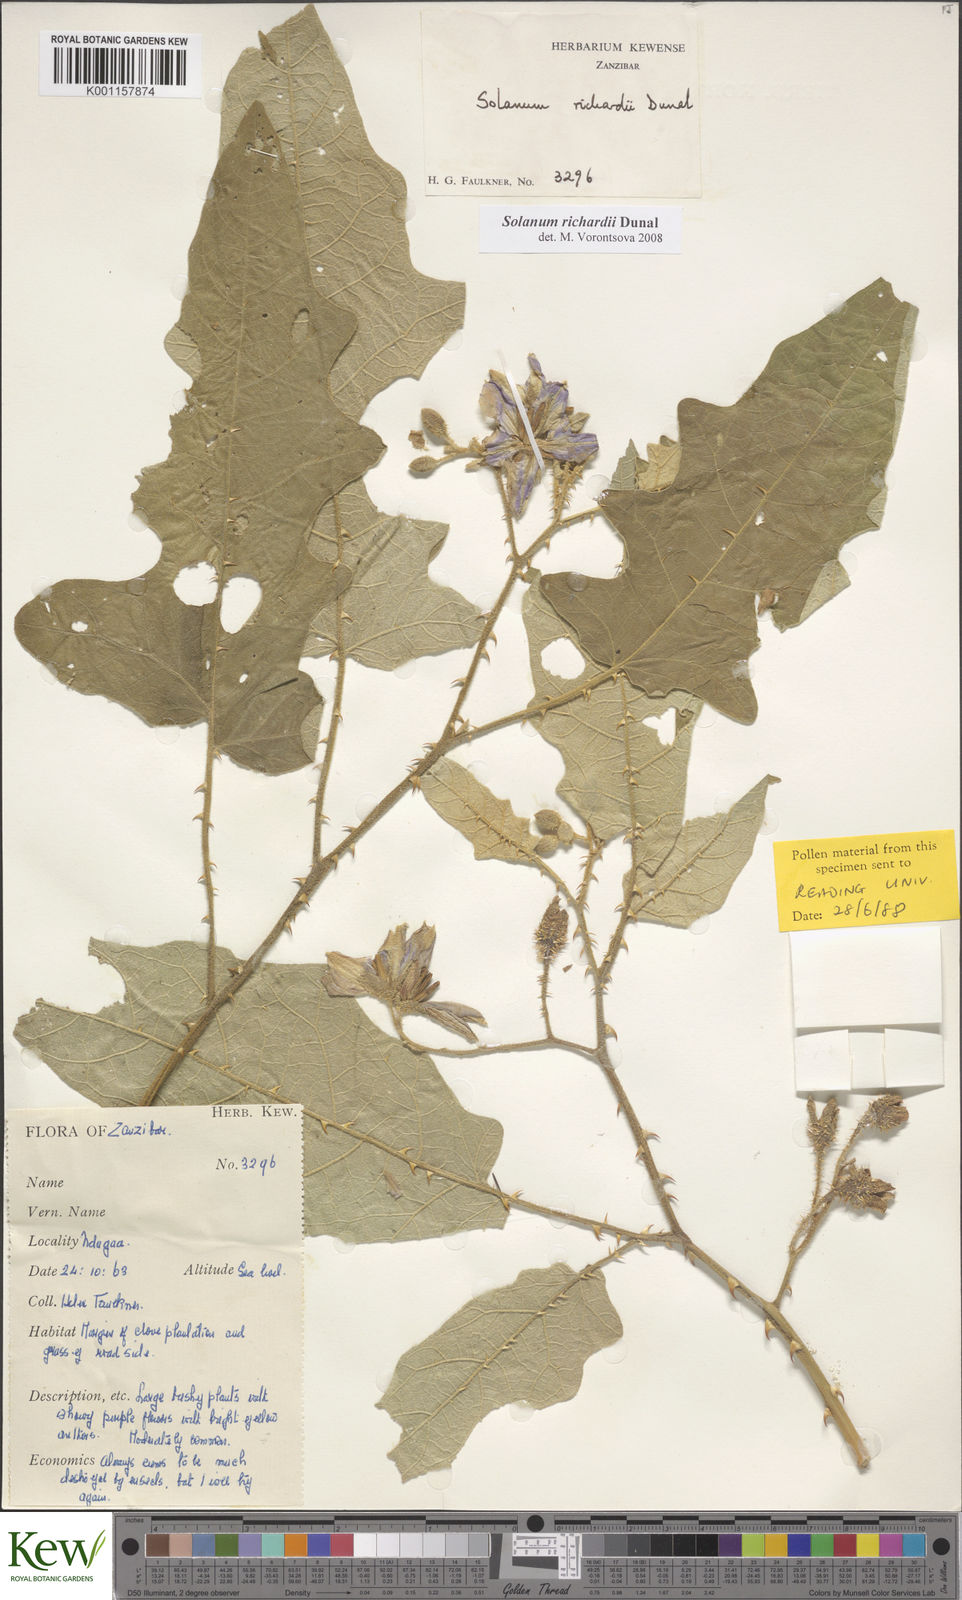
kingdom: Plantae
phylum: Tracheophyta
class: Magnoliopsida
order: Solanales
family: Solanaceae
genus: Solanum
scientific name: Solanum richardii
